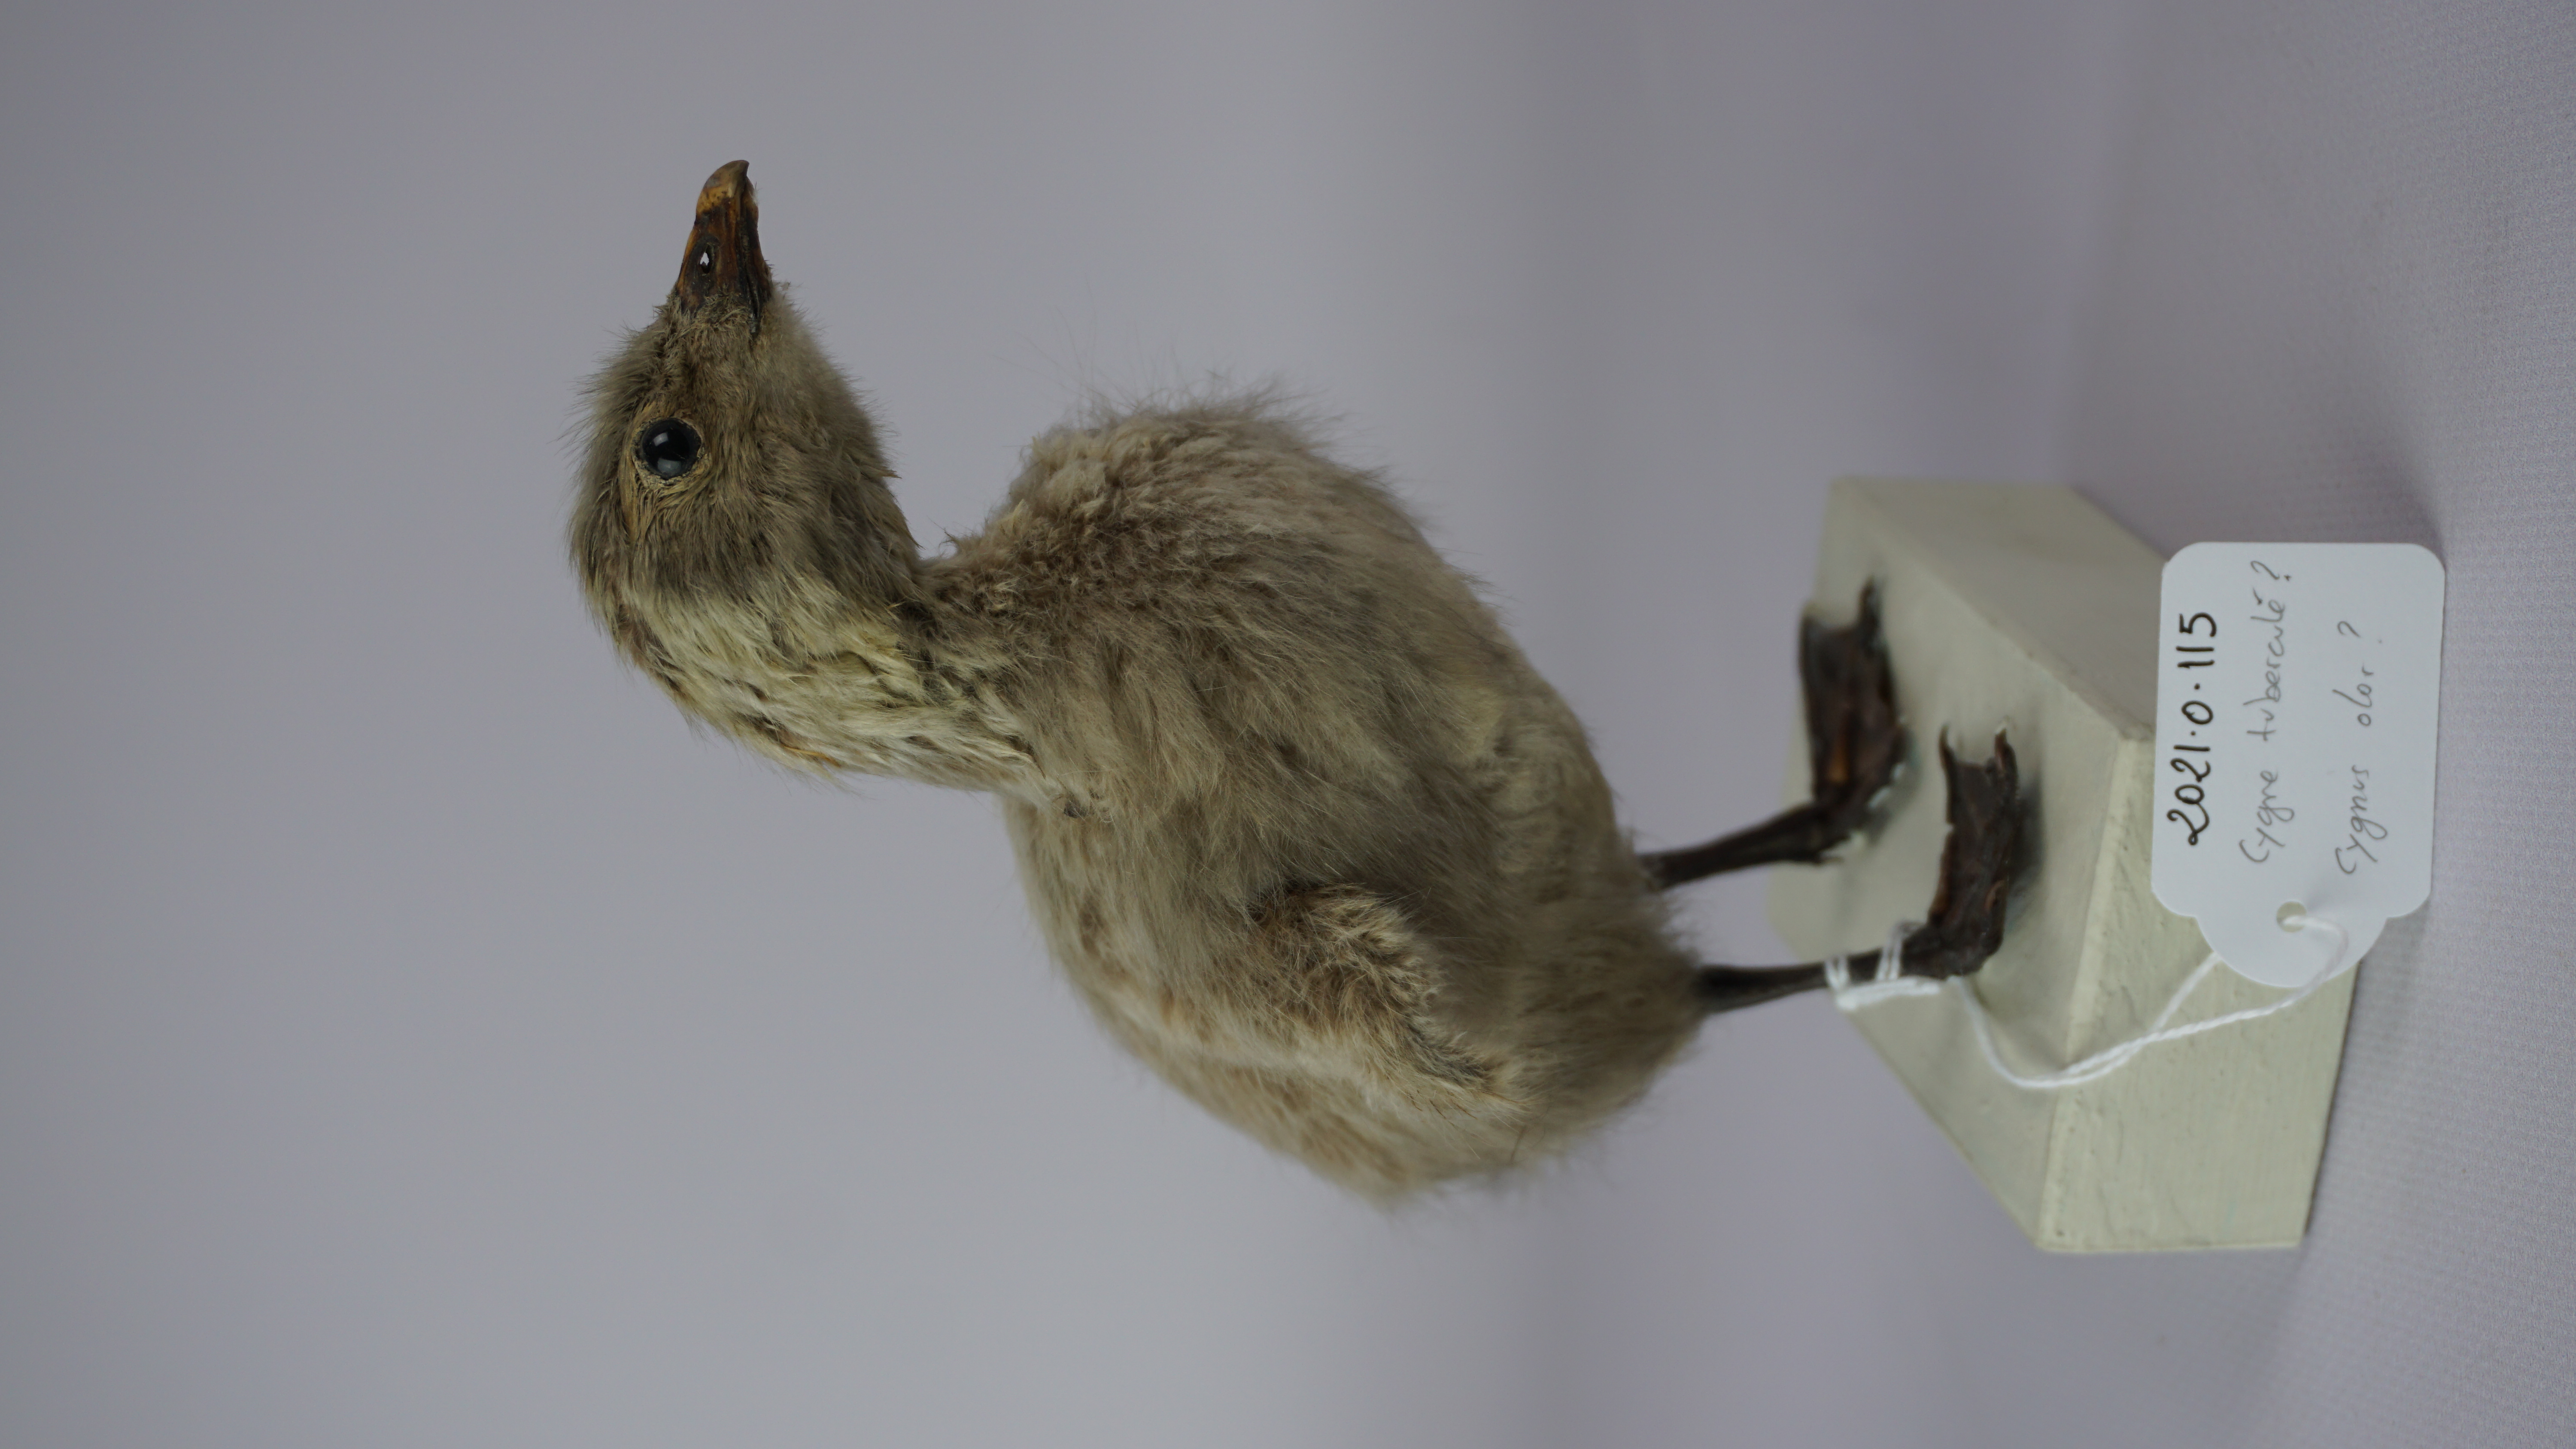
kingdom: Animalia
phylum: Chordata
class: Aves
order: Anseriformes
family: Anatidae
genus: Cygnus
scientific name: Cygnus olor
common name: Mute swan
